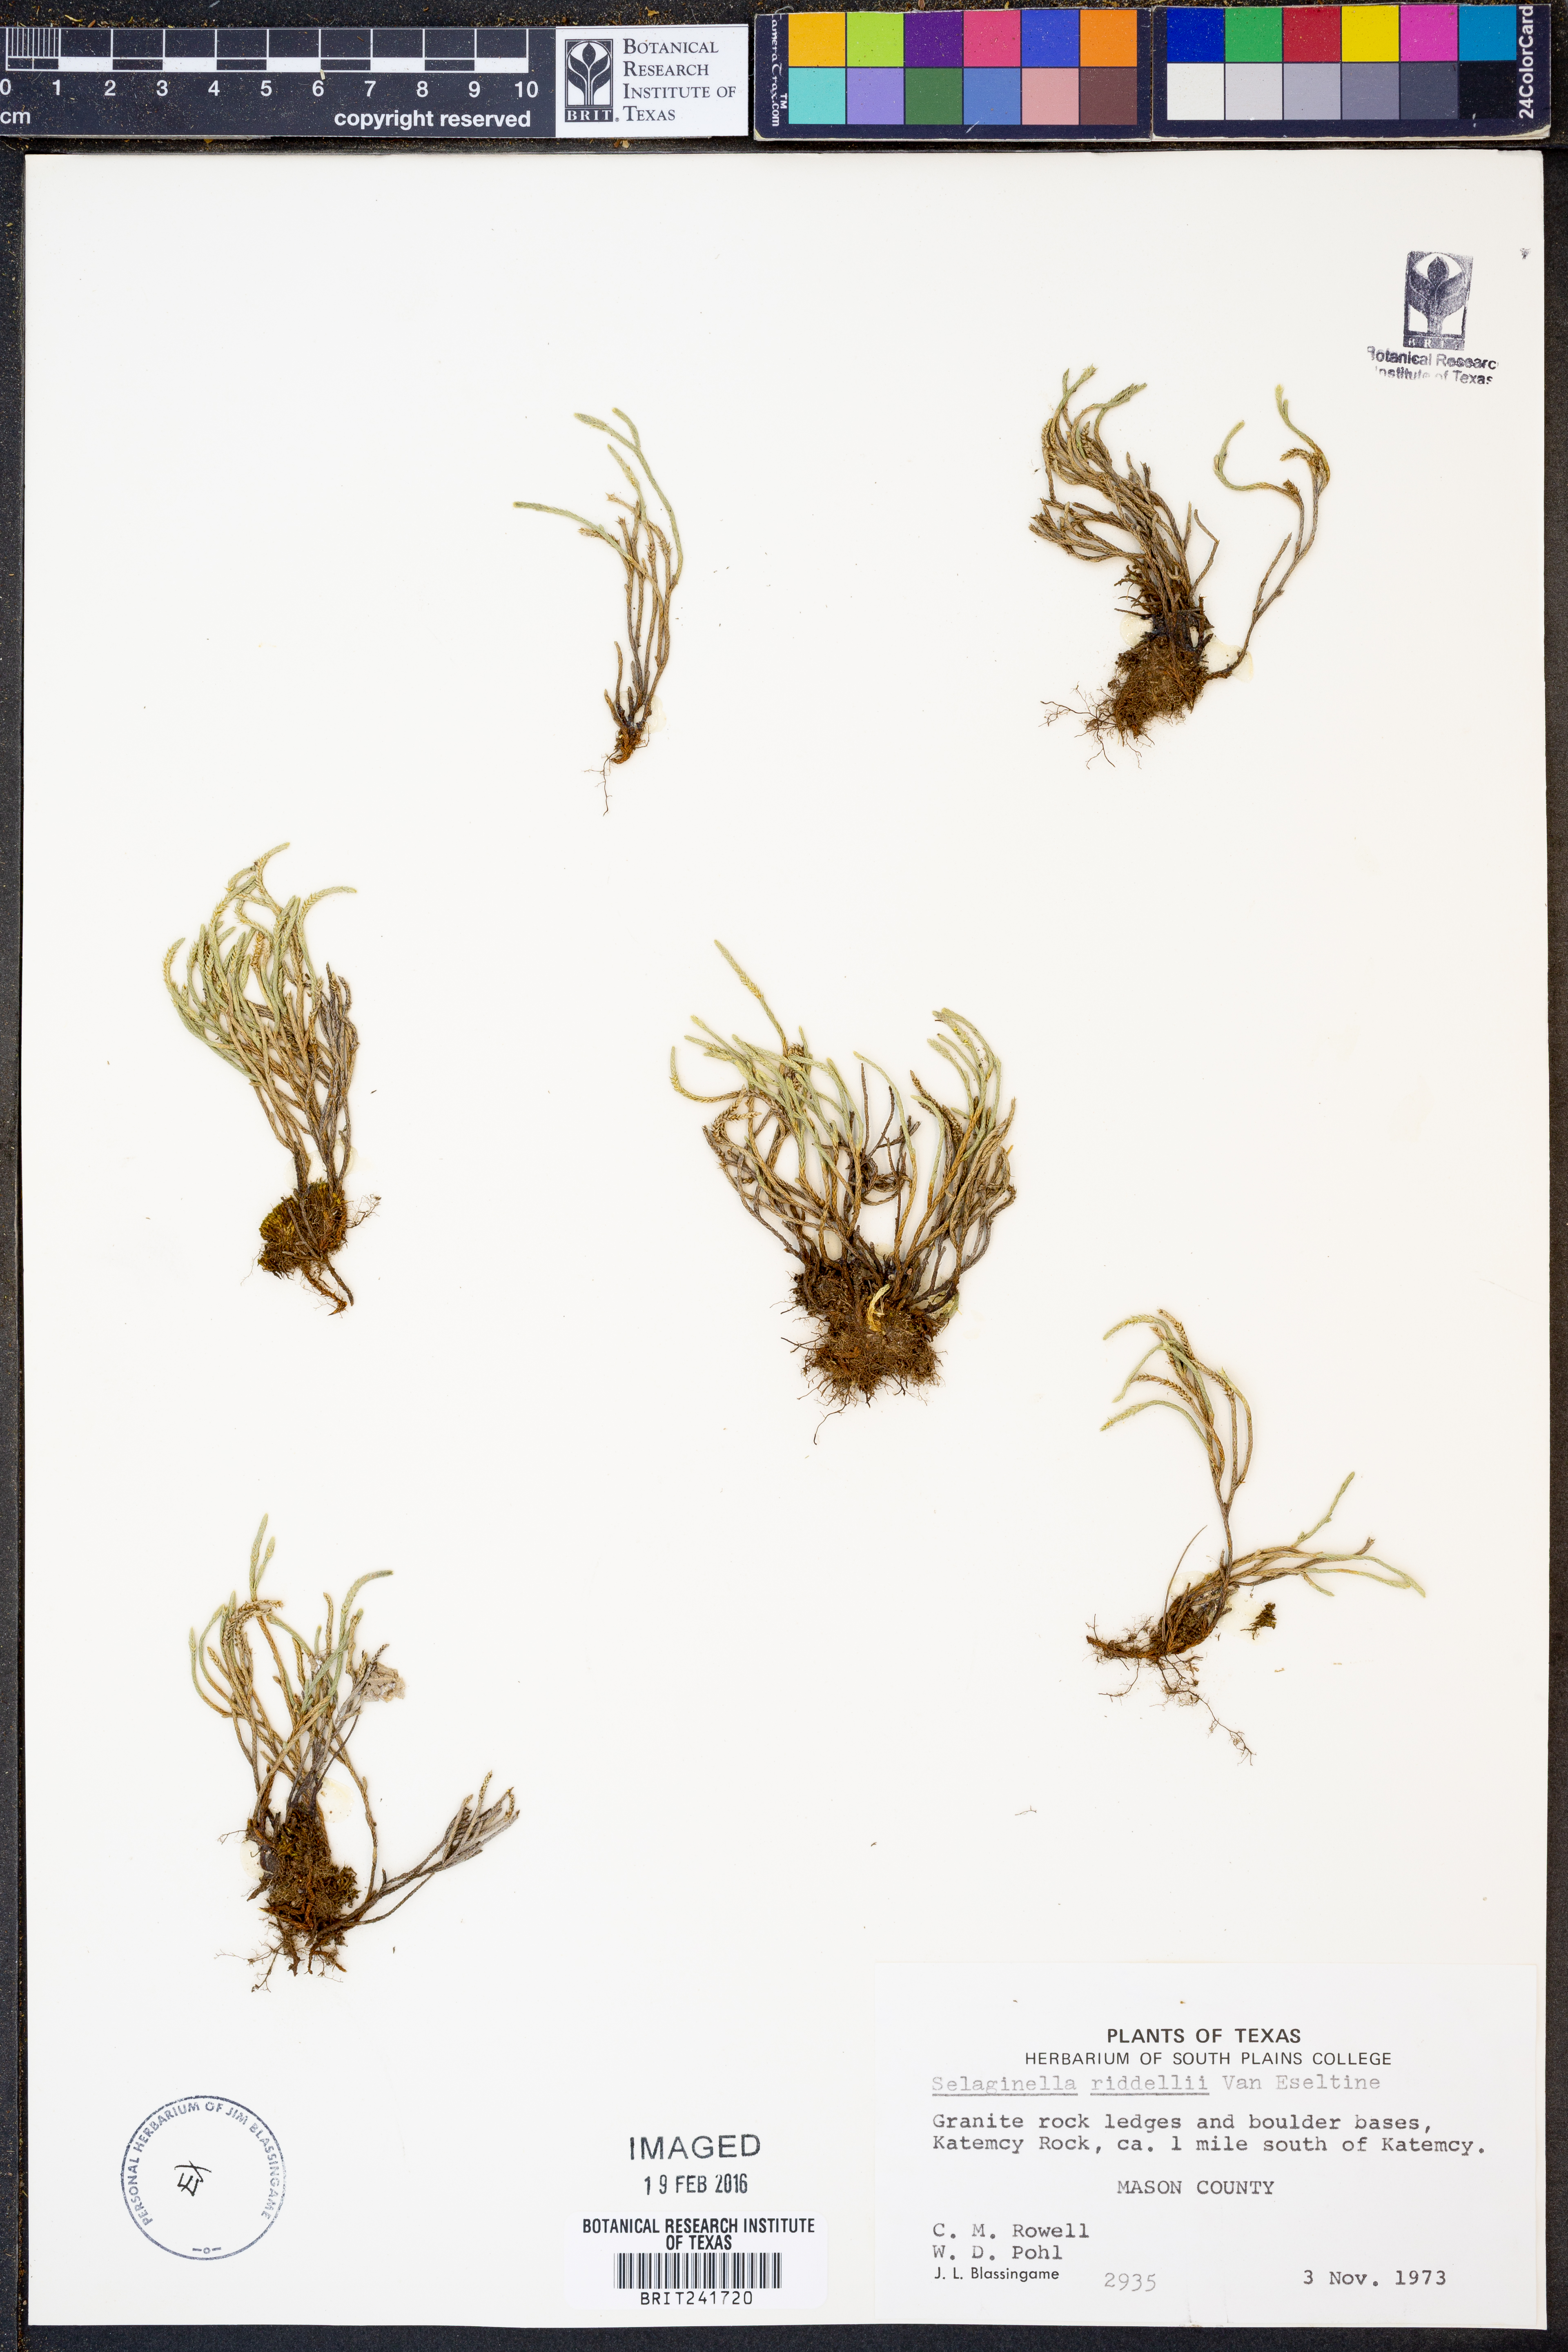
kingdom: Plantae
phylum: Tracheophyta
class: Lycopodiopsida
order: Selaginellales
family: Selaginellaceae
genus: Selaginella
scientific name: Selaginella corallina
